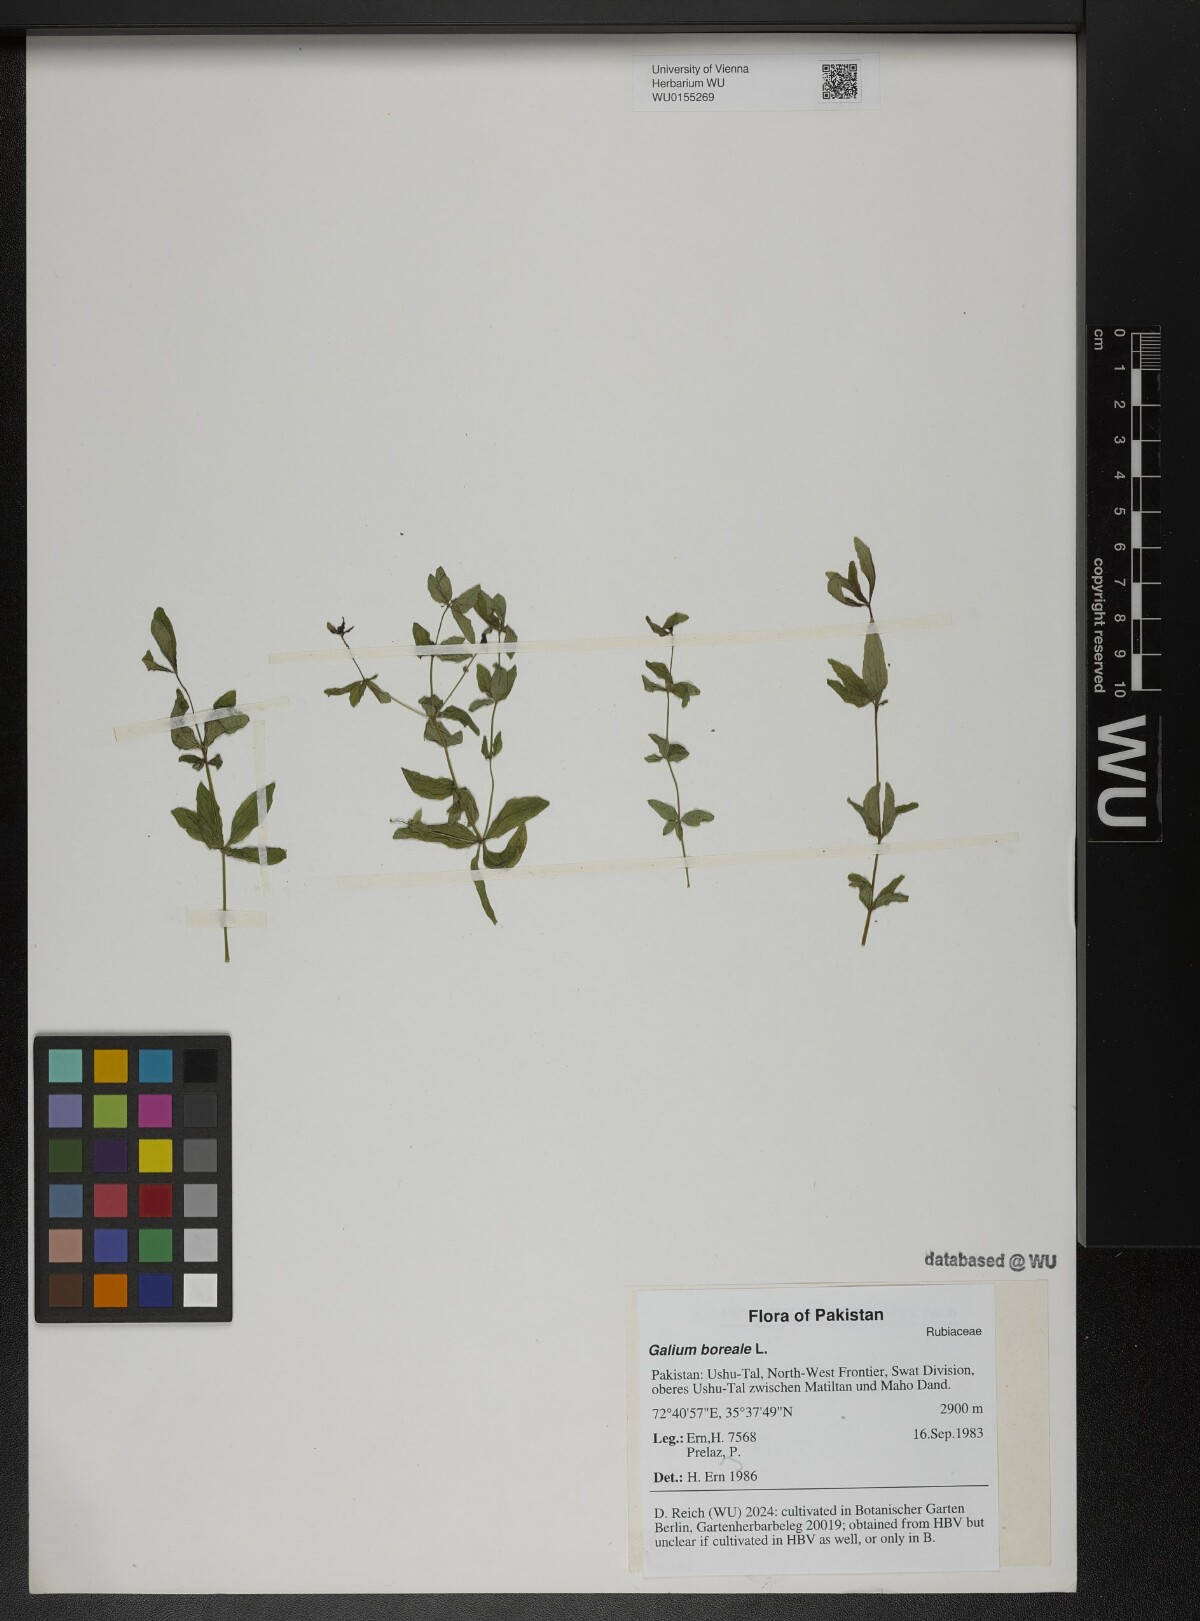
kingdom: Plantae
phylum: Tracheophyta
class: Magnoliopsida
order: Gentianales
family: Rubiaceae
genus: Galium
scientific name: Galium boreale
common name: Northern bedstraw
